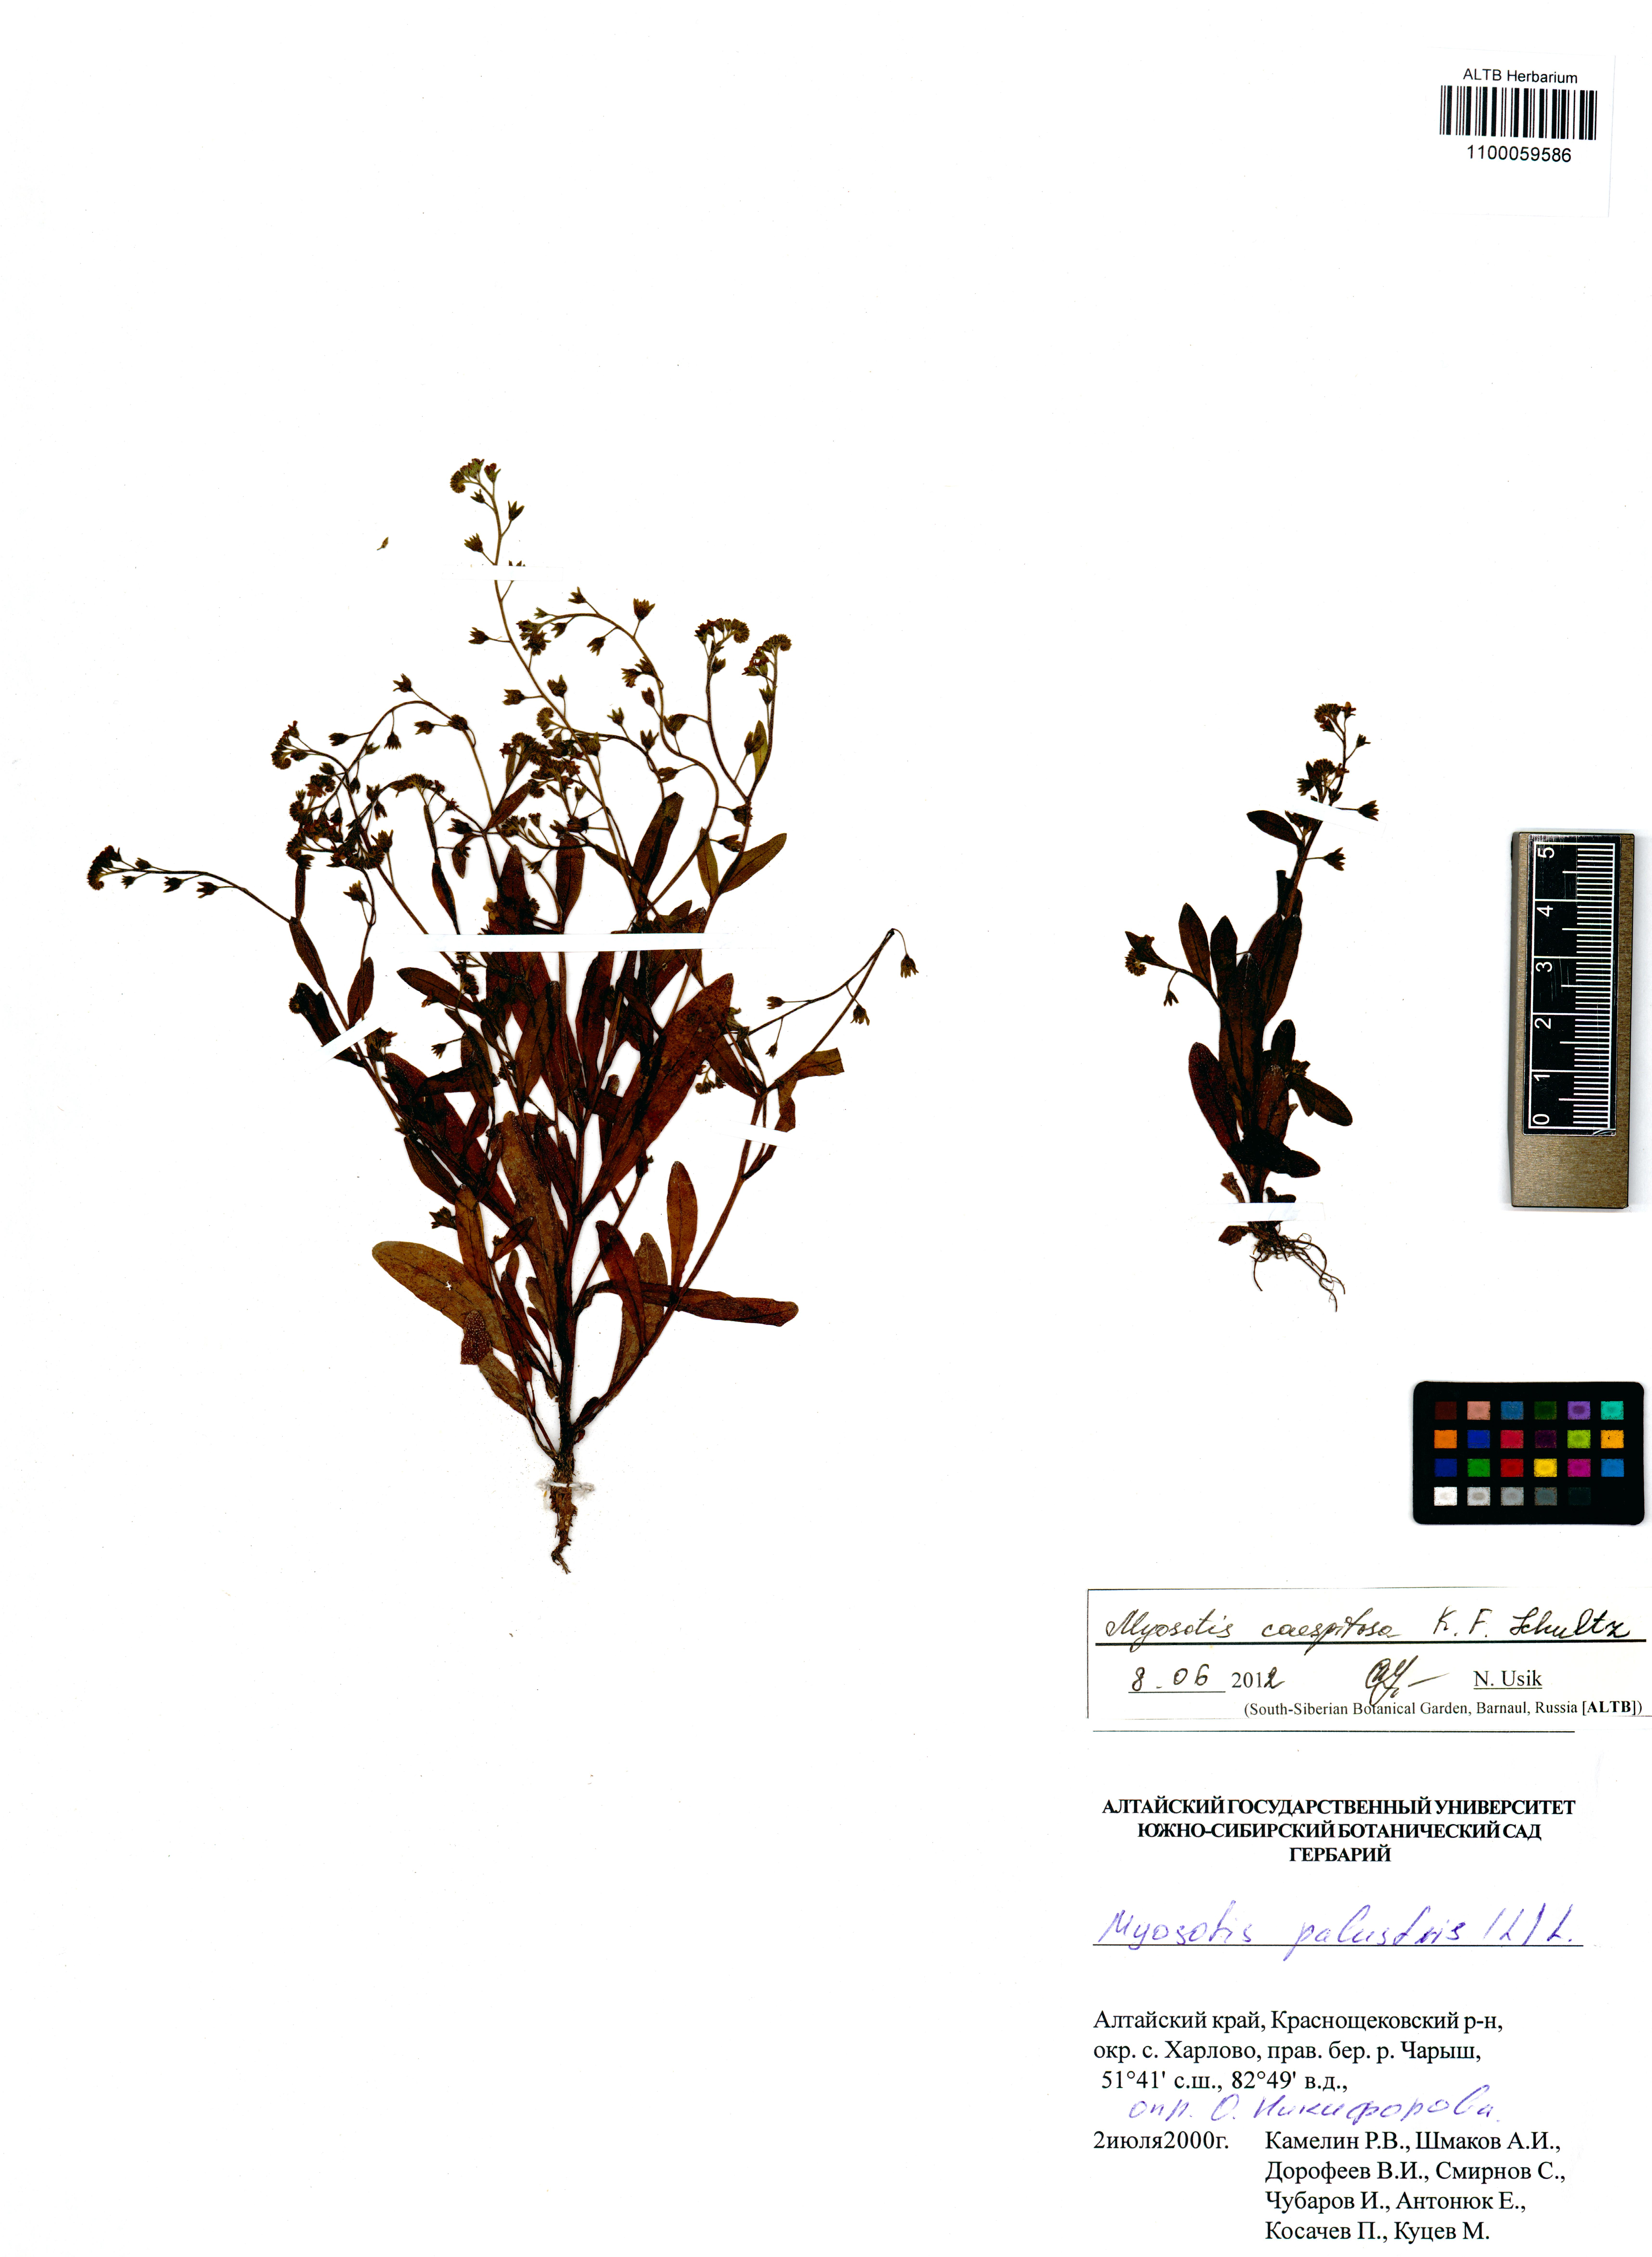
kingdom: Plantae
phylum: Tracheophyta
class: Magnoliopsida
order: Boraginales
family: Boraginaceae
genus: Myosotis
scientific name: Myosotis laxa
